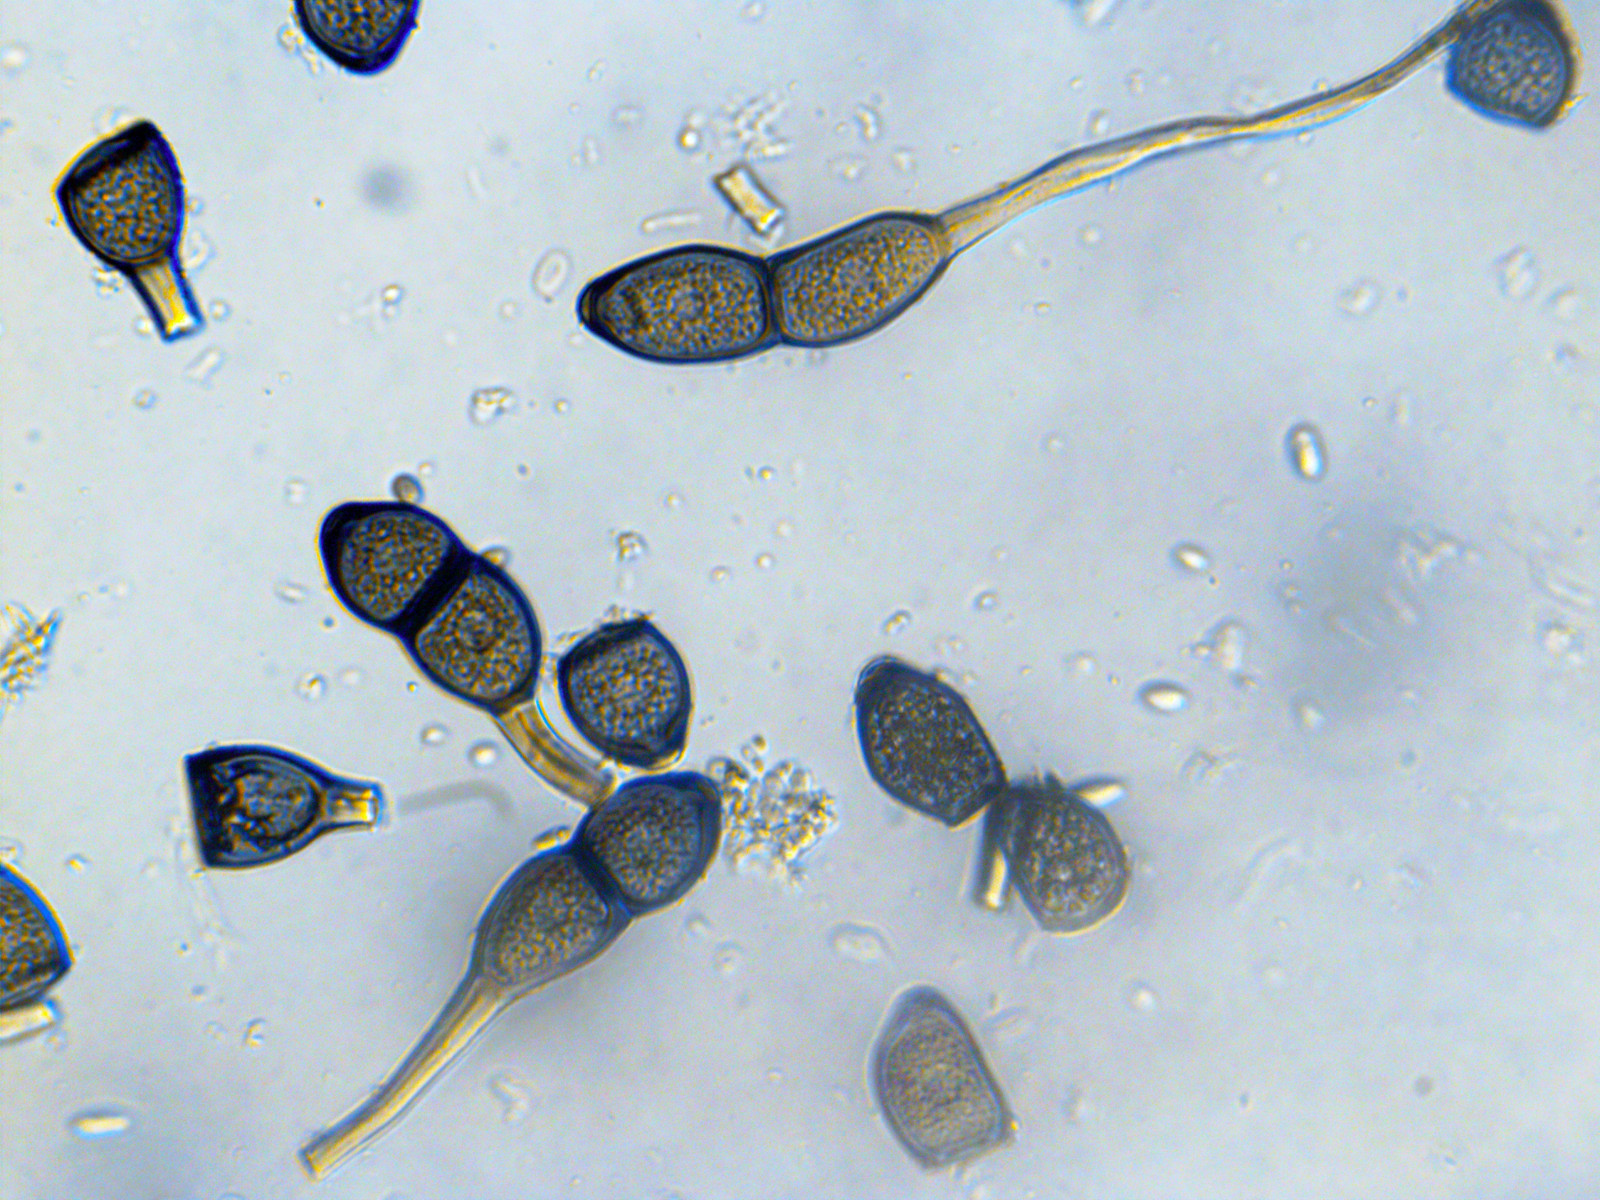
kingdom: Fungi
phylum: Basidiomycota
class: Pucciniomycetes
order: Pucciniales
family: Pucciniaceae
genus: Puccinia
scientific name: Puccinia phragmitis
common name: tagrør-tvecellerust
